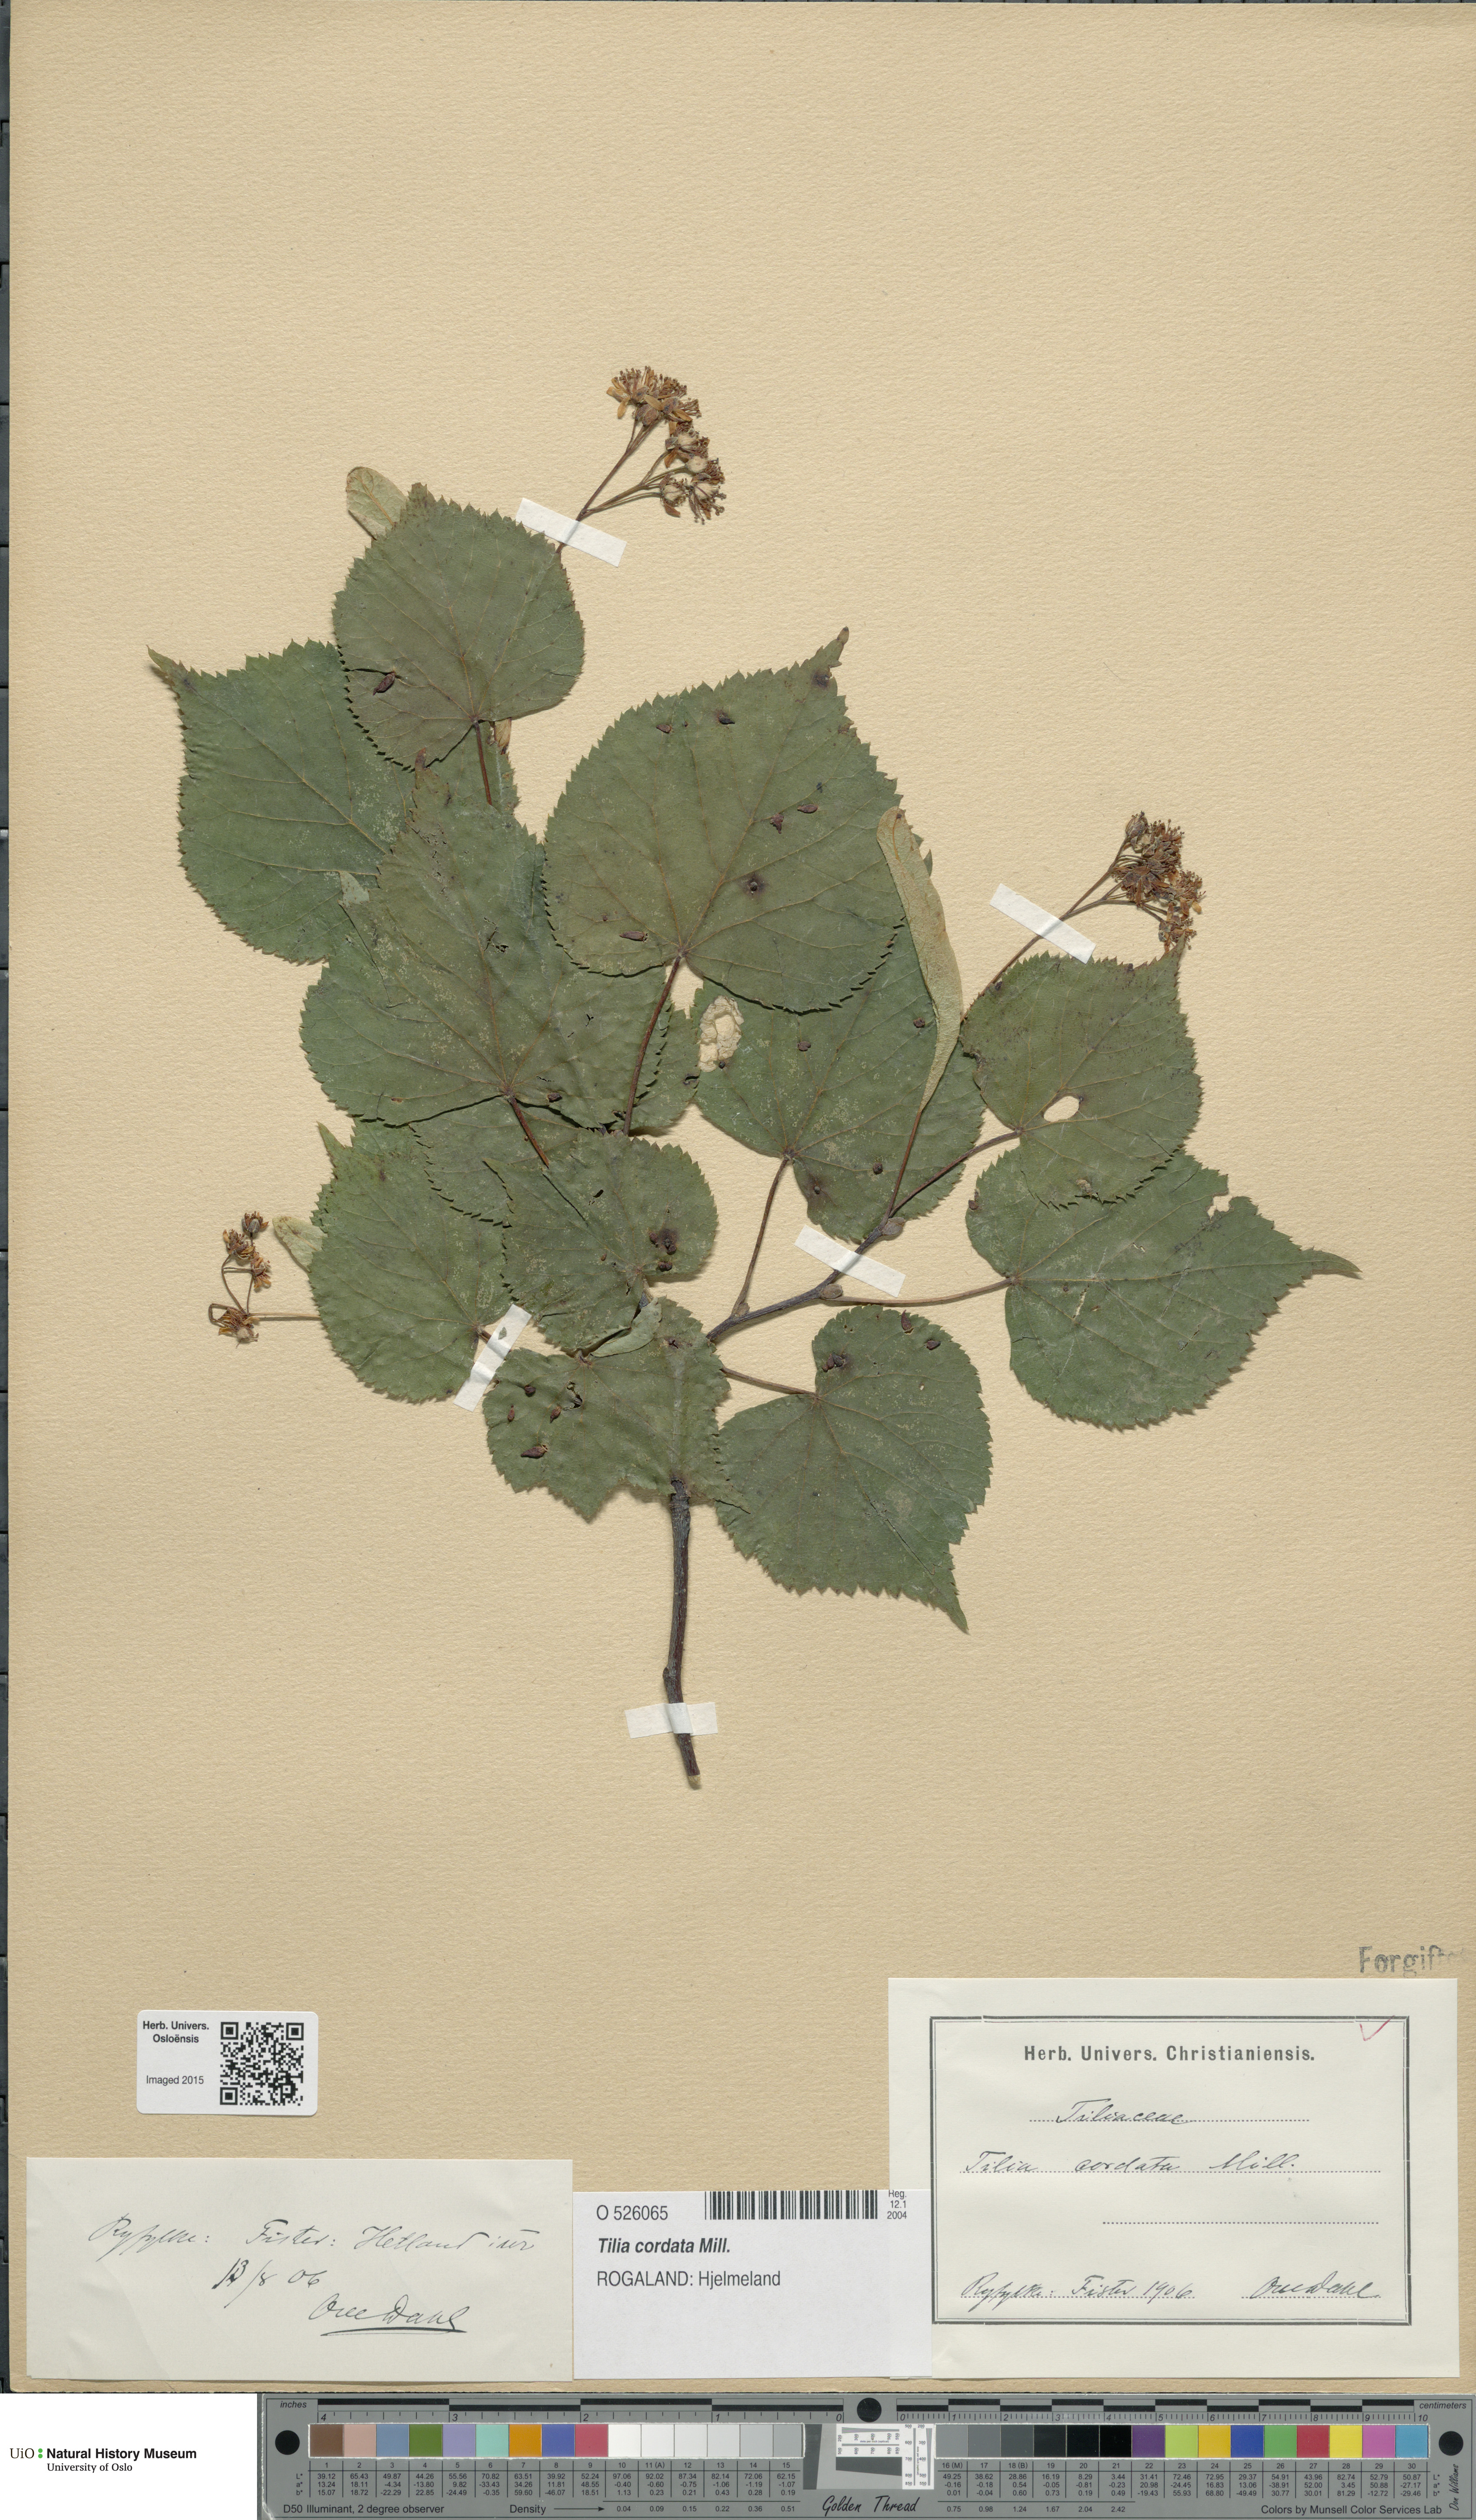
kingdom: Plantae
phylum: Tracheophyta
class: Magnoliopsida
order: Malvales
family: Malvaceae
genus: Tilia
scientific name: Tilia cordata
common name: Small-leaved lime
